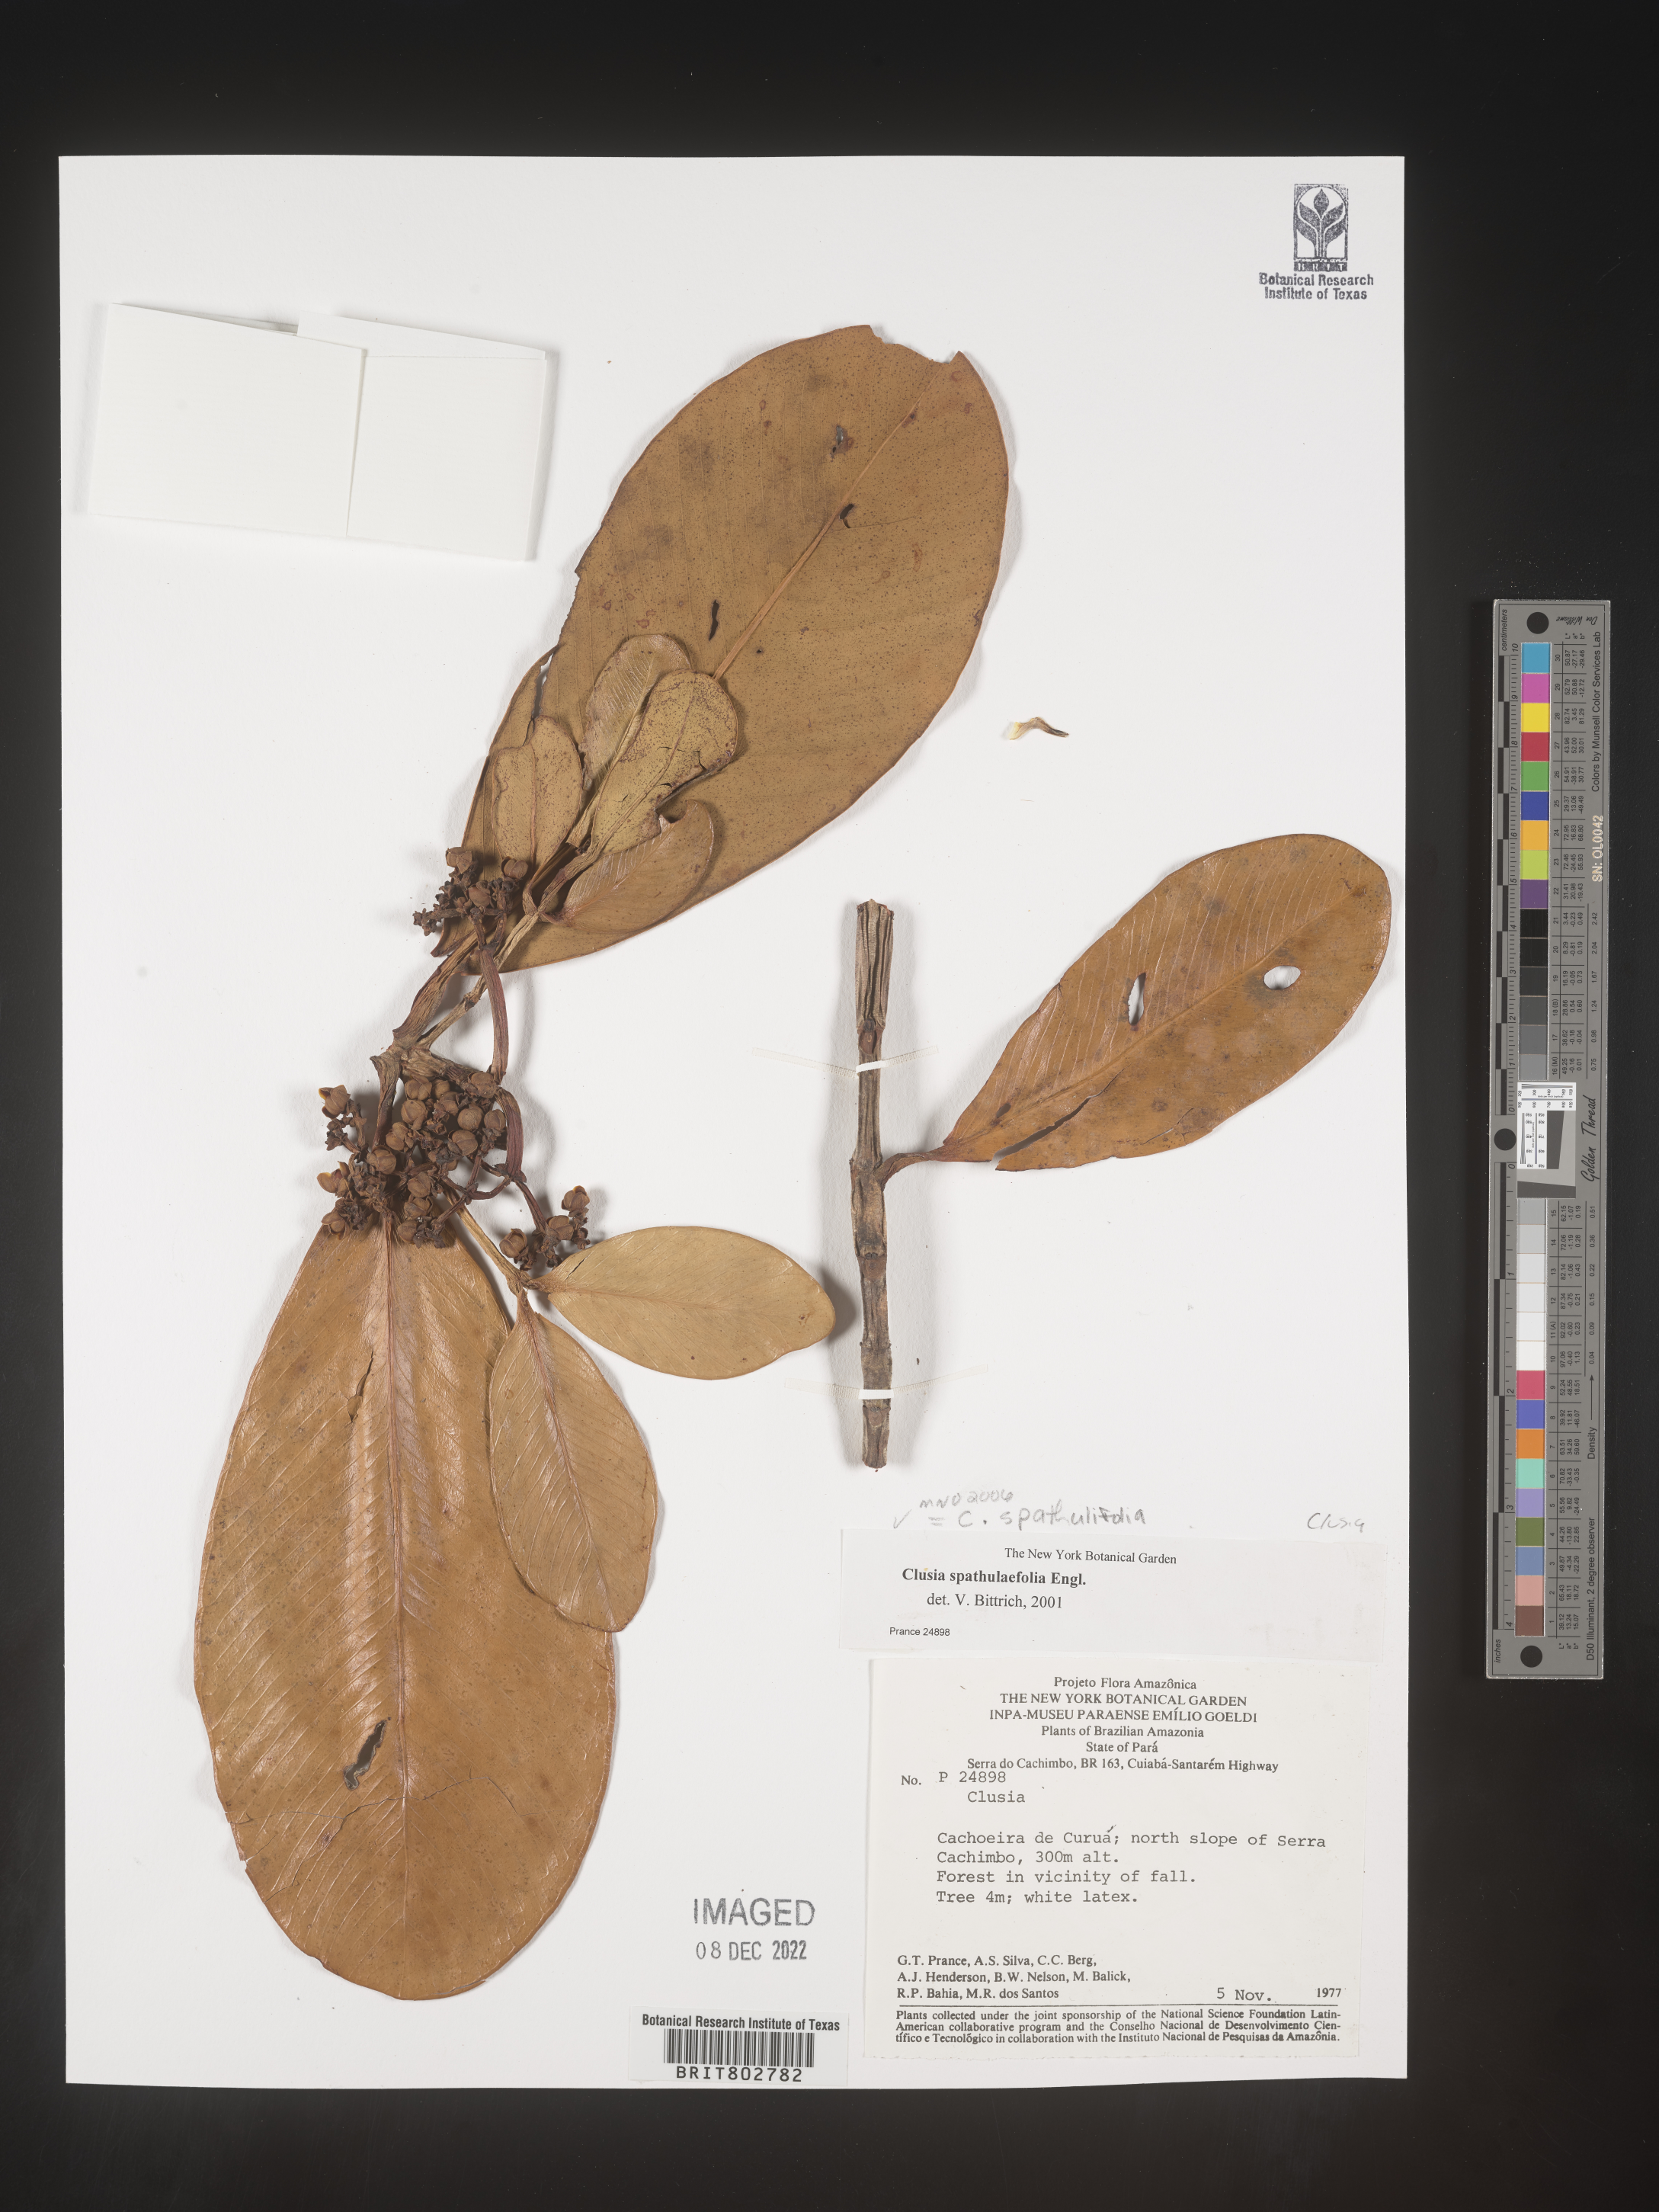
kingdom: Plantae
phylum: Tracheophyta
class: Magnoliopsida
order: Malpighiales
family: Clusiaceae
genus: Clusia
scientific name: Clusia spathulifolia
